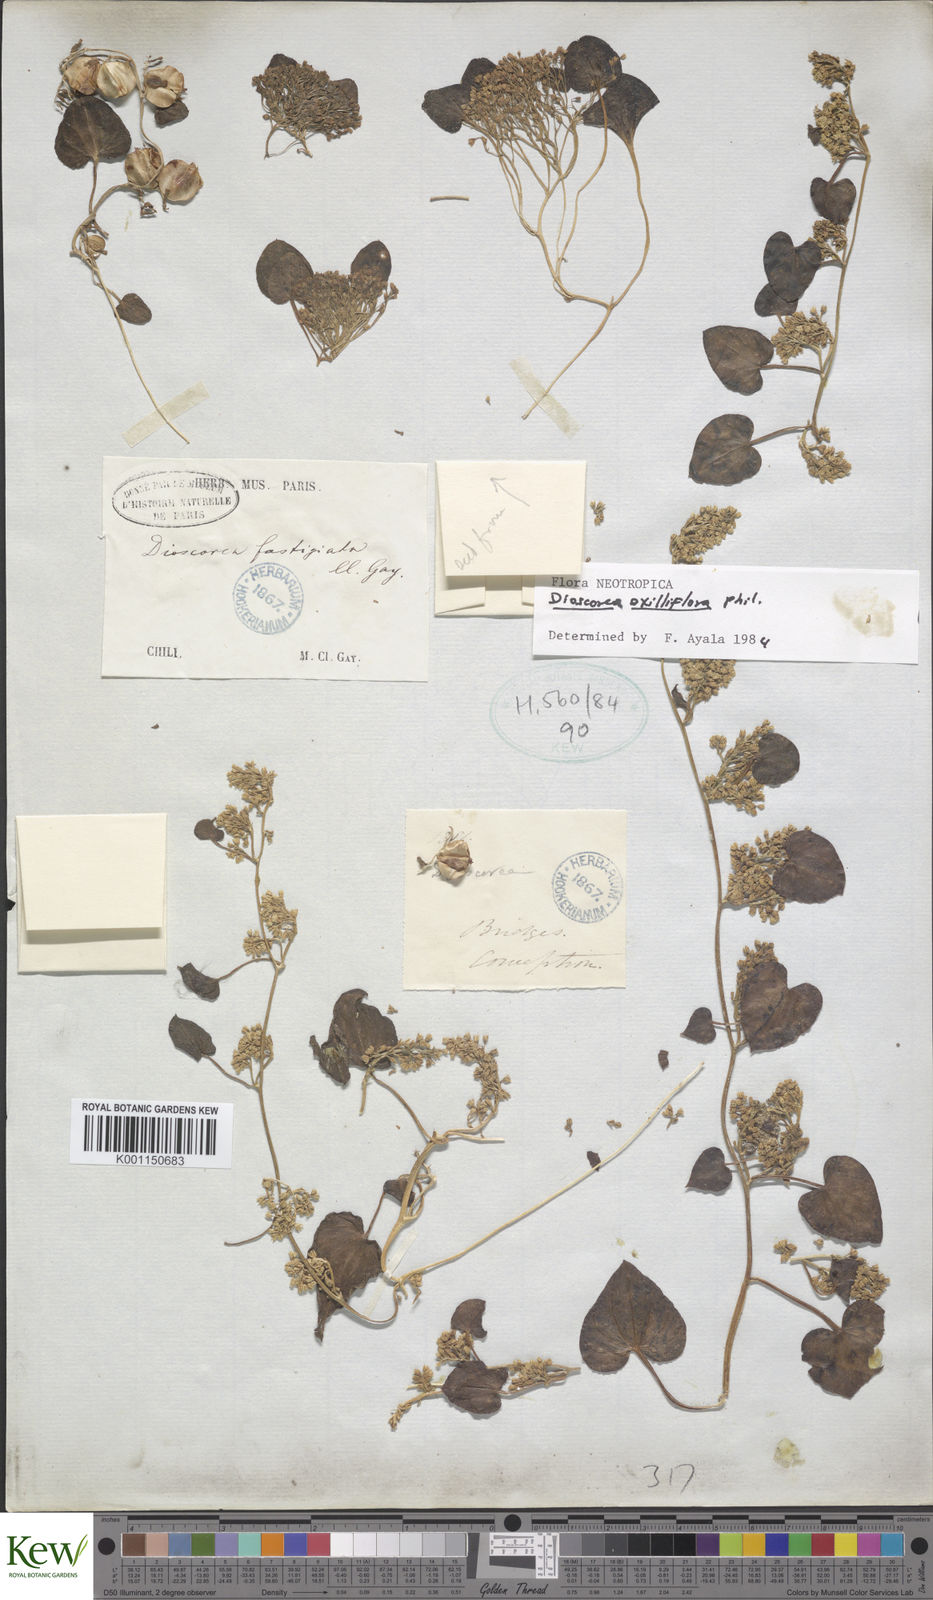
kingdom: Plantae
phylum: Tracheophyta
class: Liliopsida
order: Dioscoreales
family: Dioscoreaceae
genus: Dioscorea
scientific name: Dioscorea
